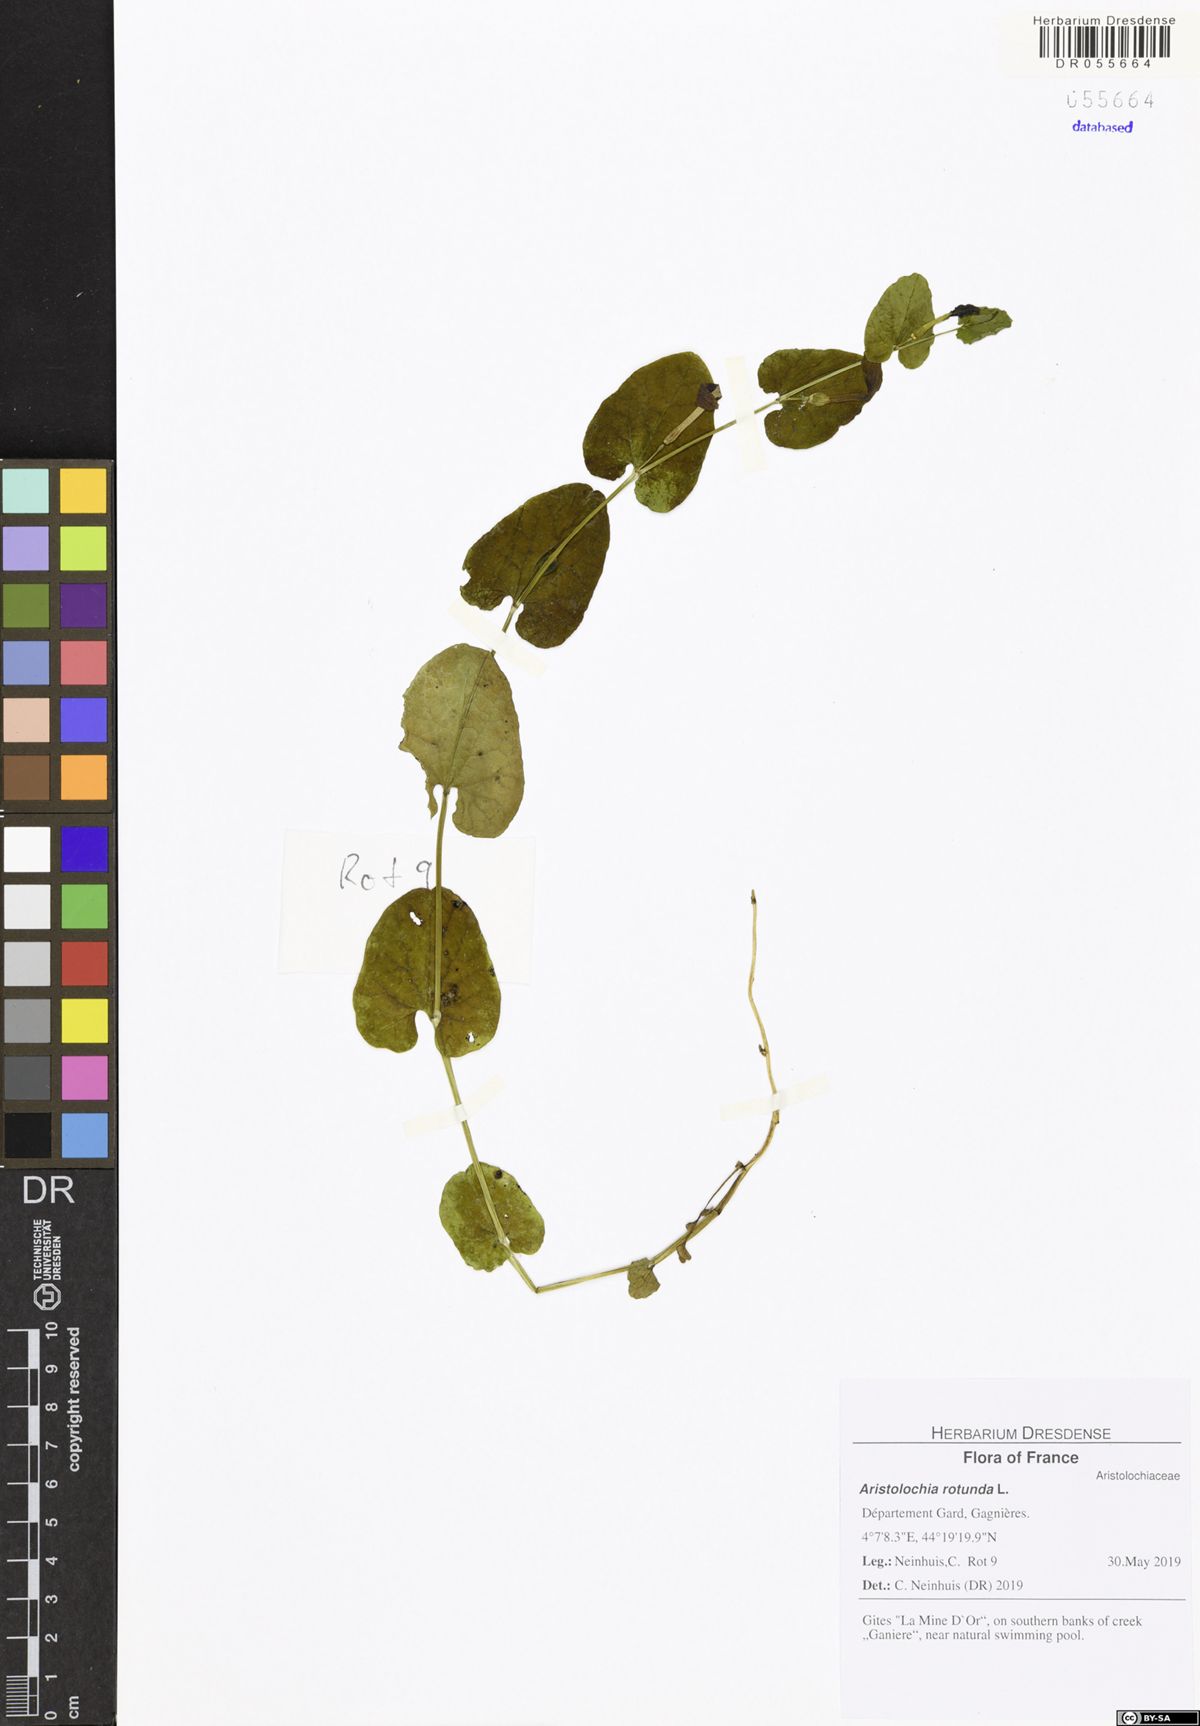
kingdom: Plantae
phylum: Tracheophyta
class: Magnoliopsida
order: Piperales
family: Aristolochiaceae
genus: Aristolochia
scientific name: Aristolochia rotunda
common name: Smearwort
